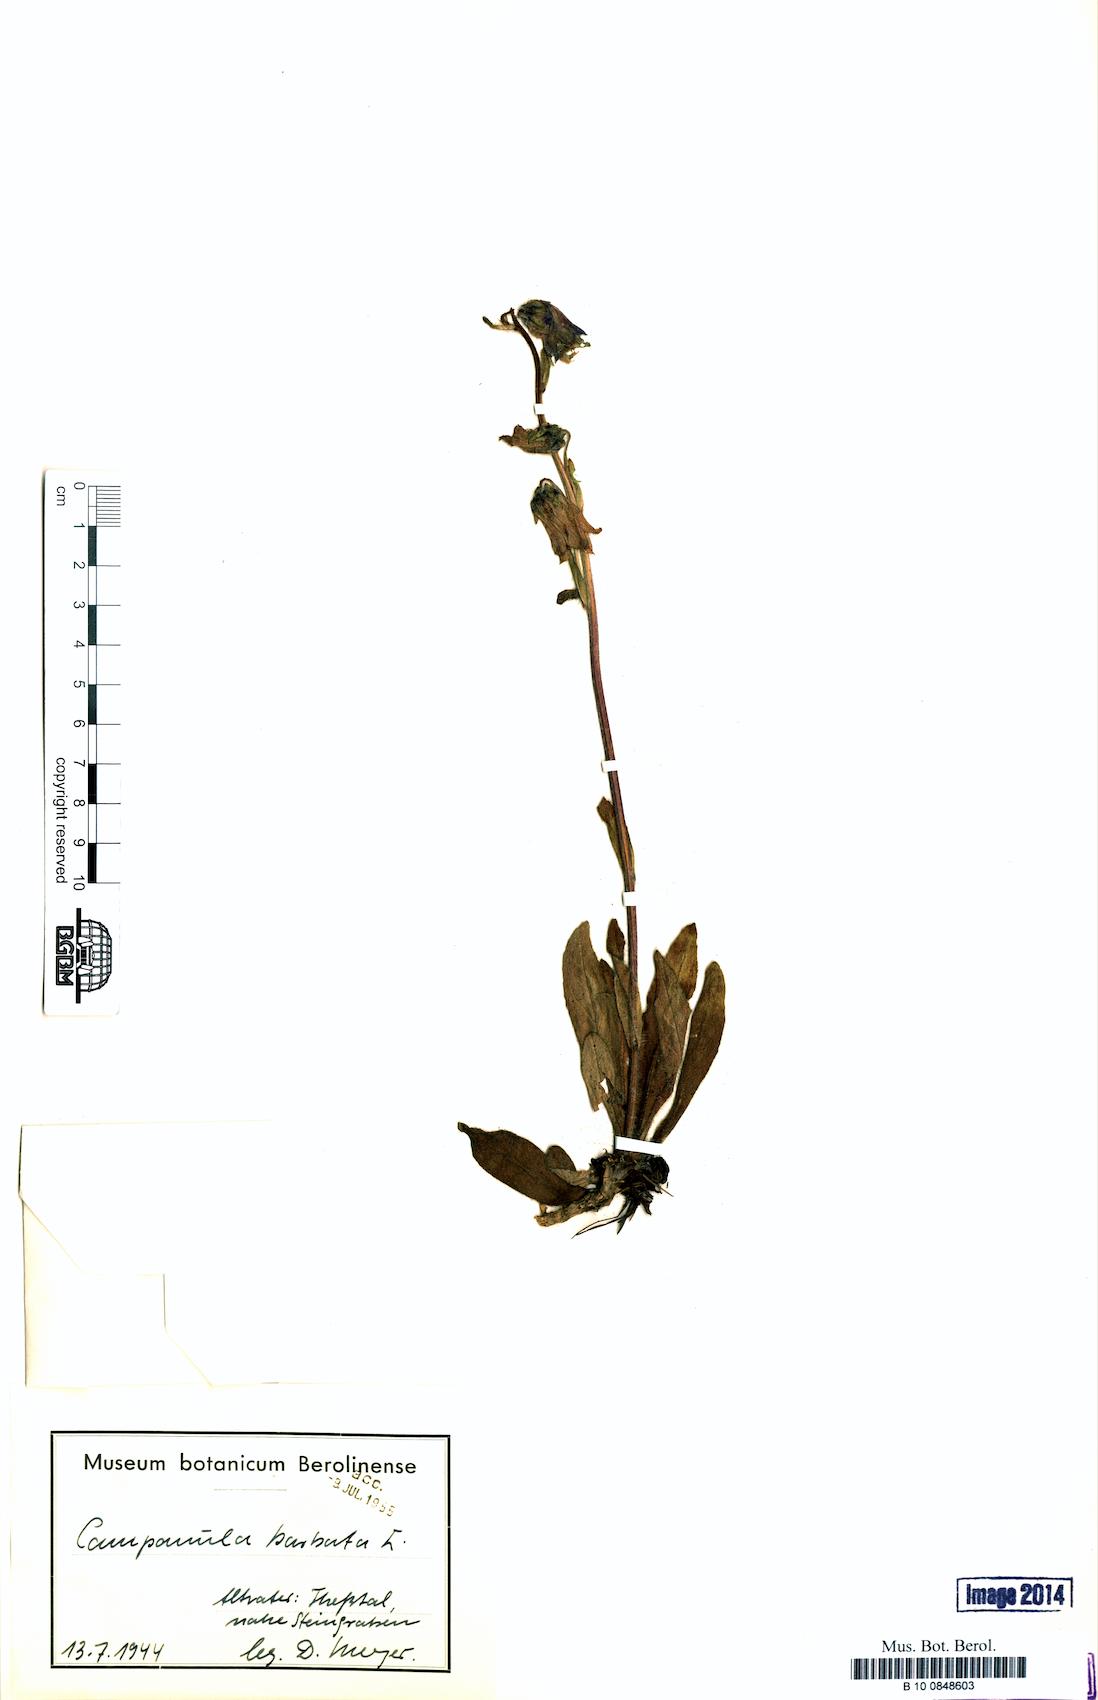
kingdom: Plantae
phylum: Tracheophyta
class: Magnoliopsida
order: Asterales
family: Campanulaceae
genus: Campanula
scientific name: Campanula barbata
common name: Bearded bellflower
